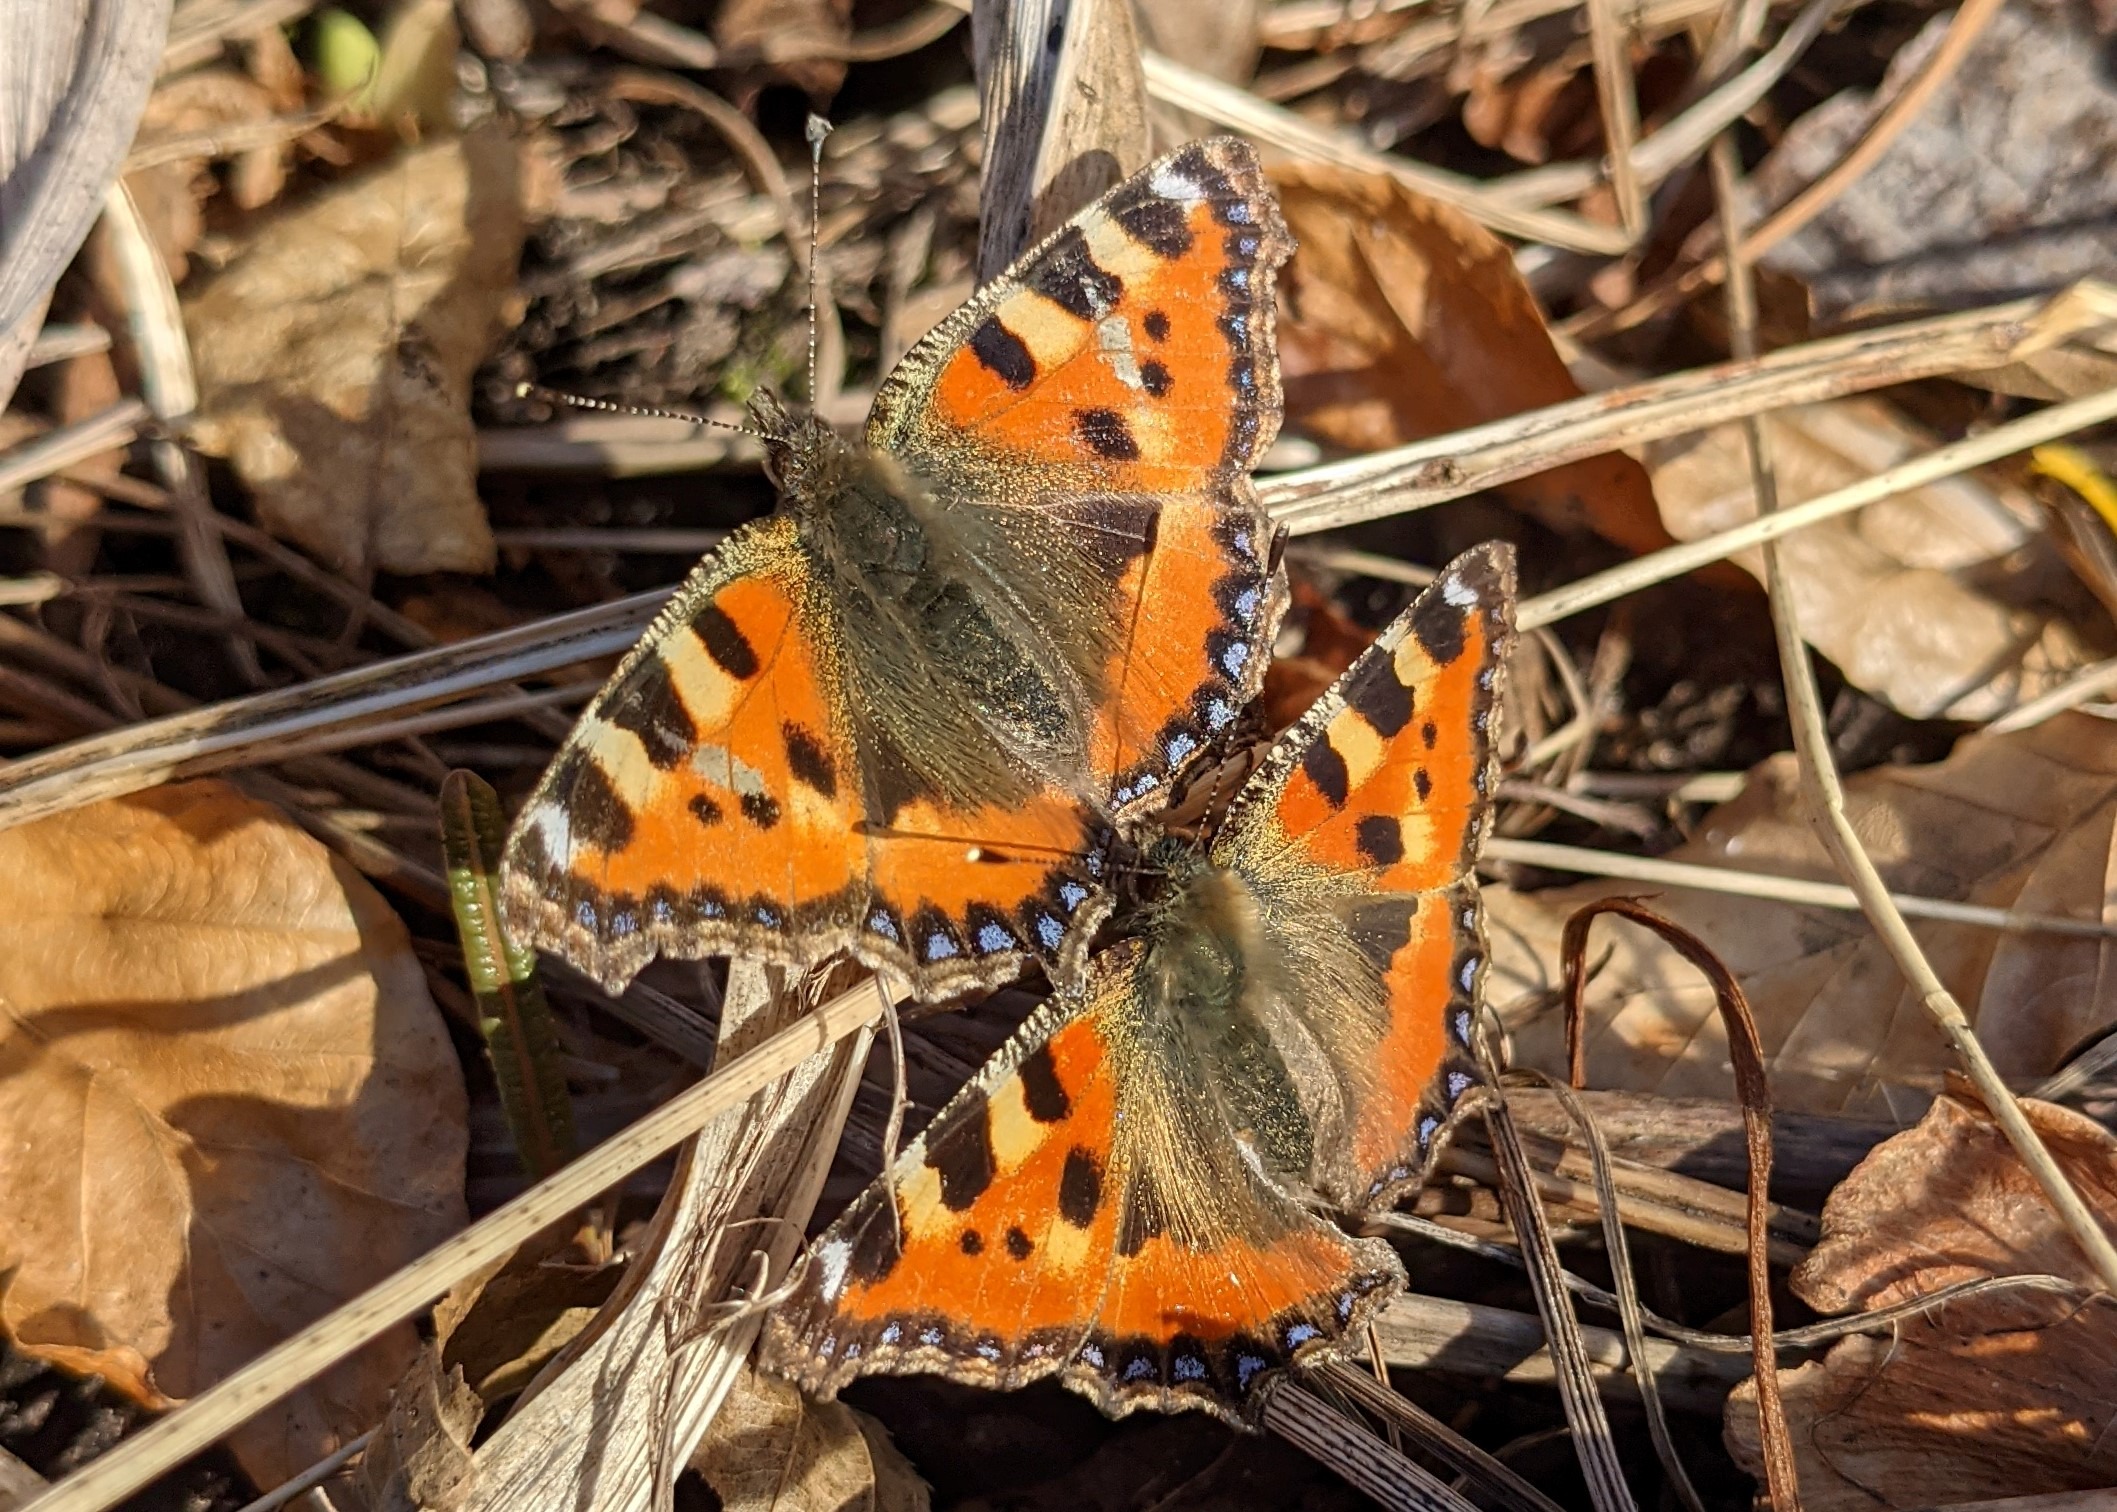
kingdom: Animalia
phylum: Arthropoda
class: Insecta
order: Lepidoptera
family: Nymphalidae
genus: Aglais
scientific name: Aglais urticae
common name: Nældens takvinge
